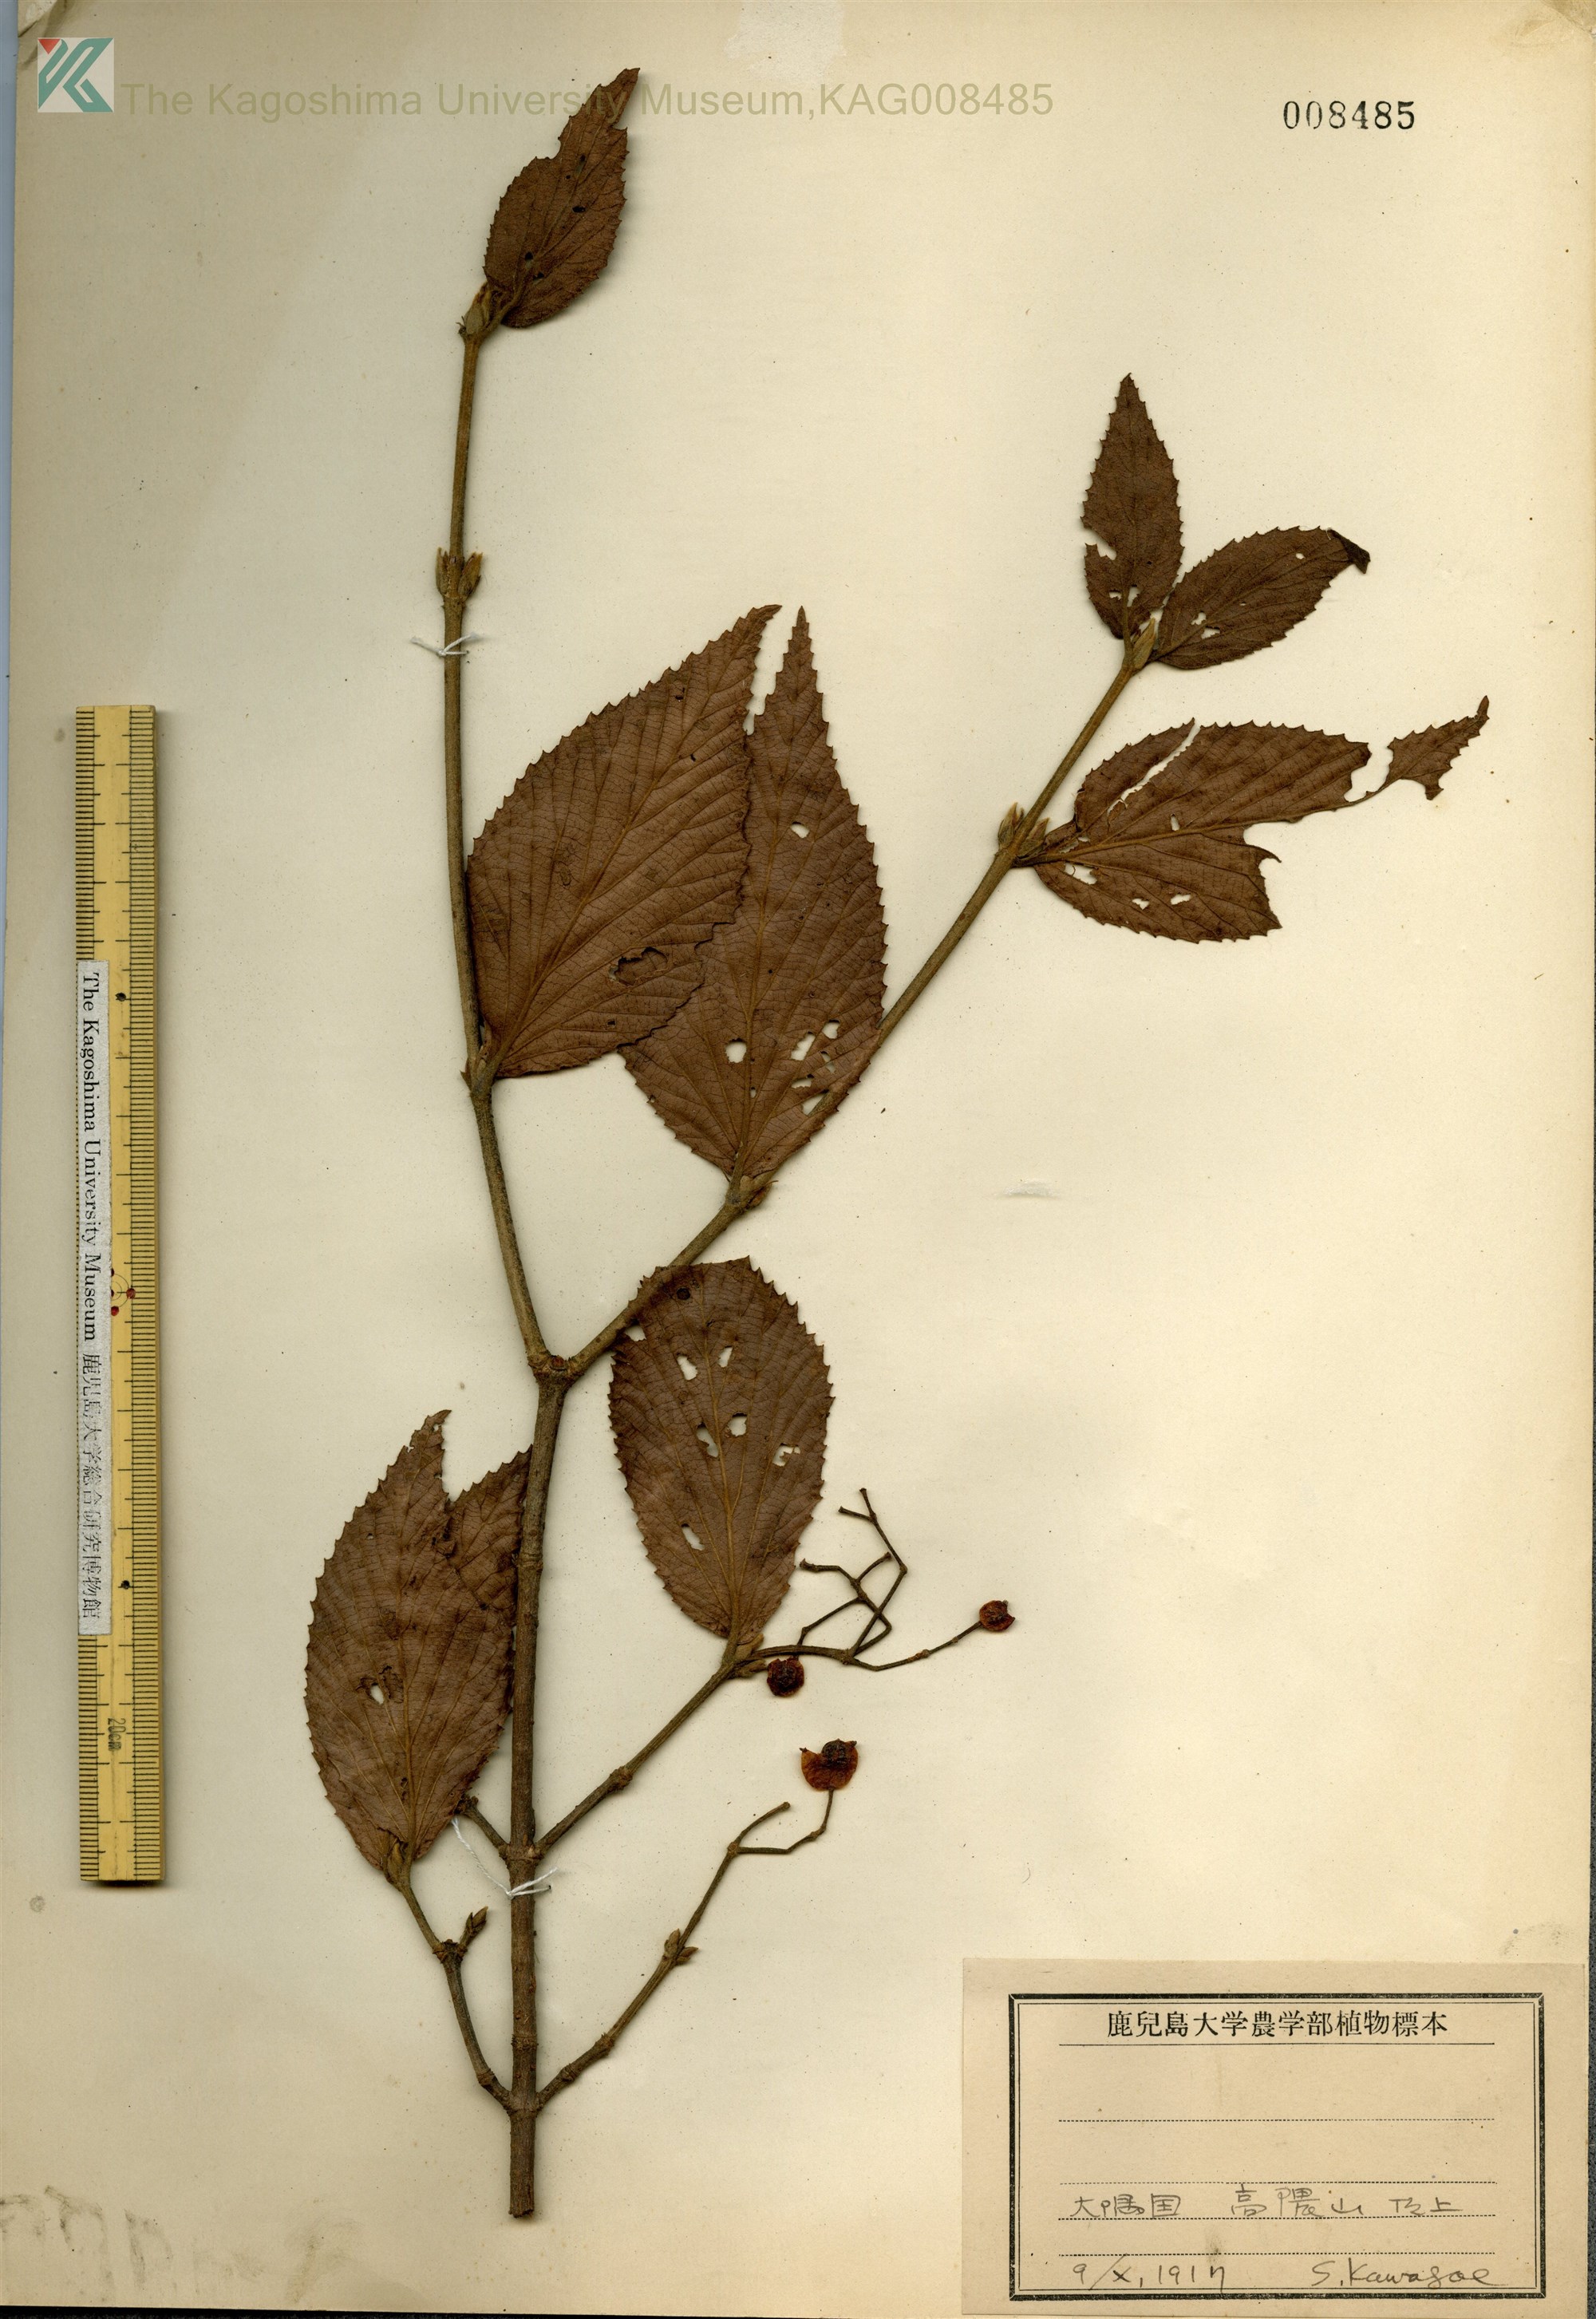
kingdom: Plantae
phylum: Tracheophyta
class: Magnoliopsida
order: Dipsacales
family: Viburnaceae
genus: Viburnum
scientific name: Viburnum erosum
